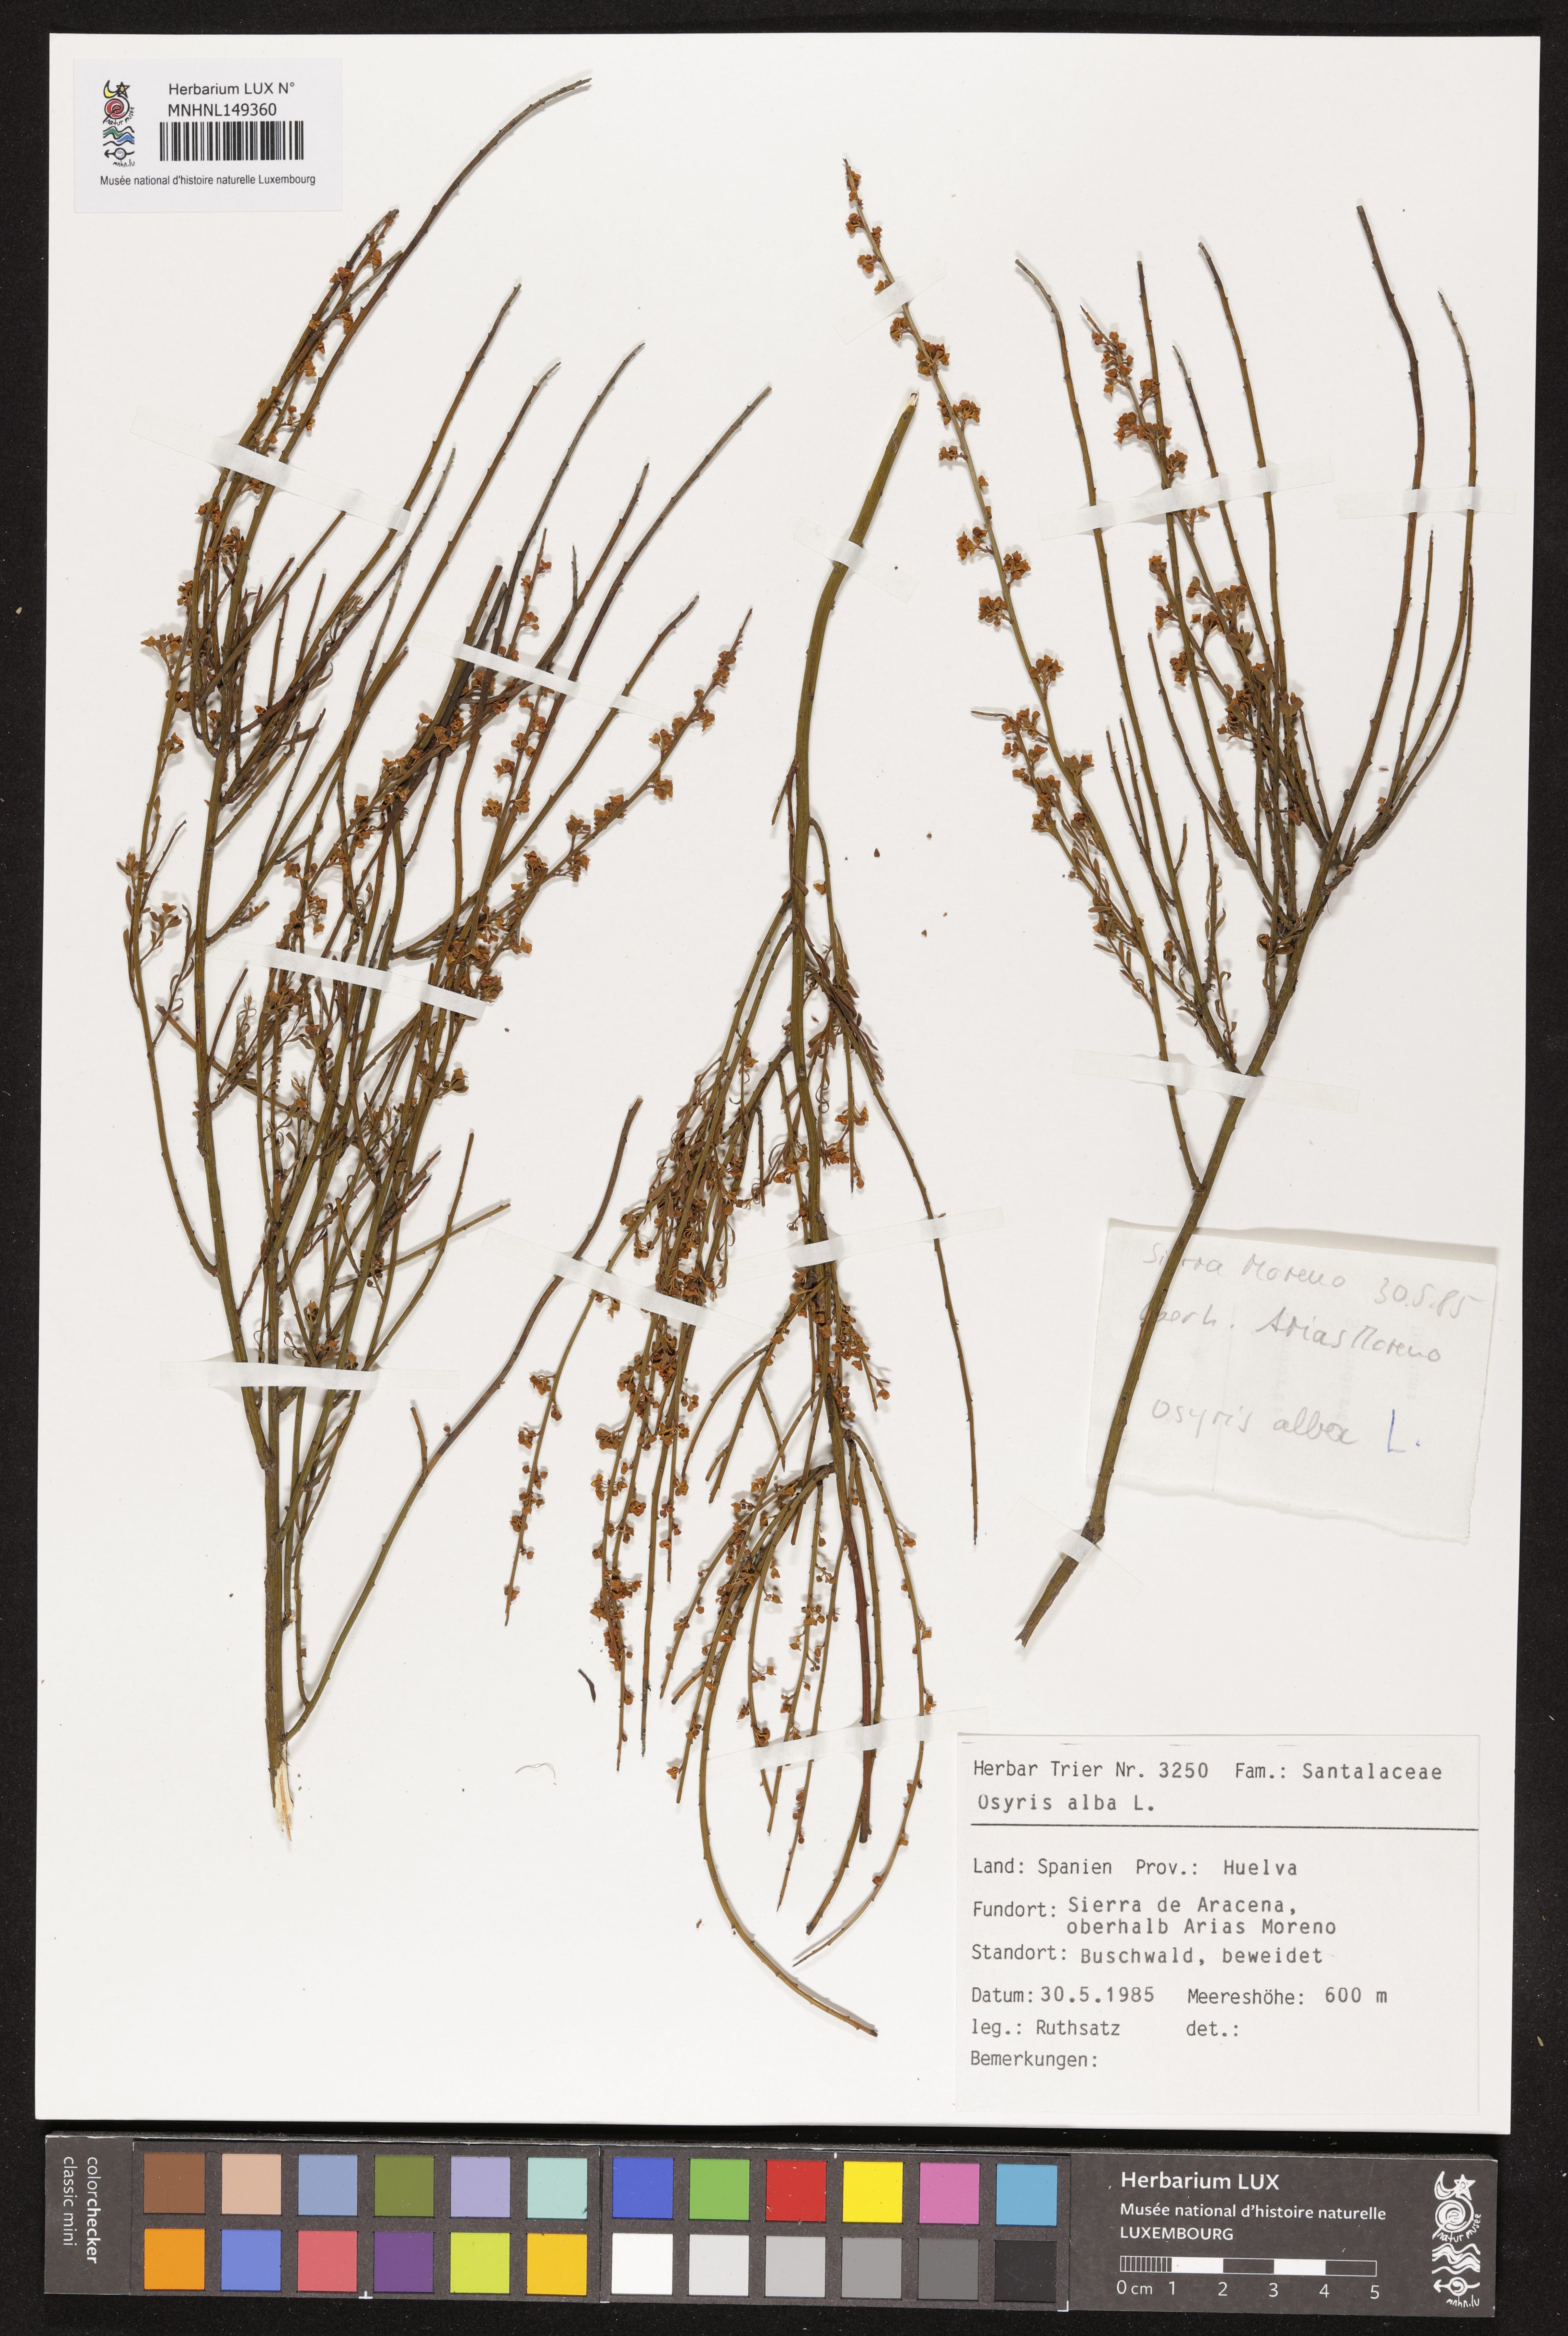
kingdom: Plantae
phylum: Tracheophyta
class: Magnoliopsida
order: Santalales
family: Santalaceae
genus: Osyris
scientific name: Osyris alba
